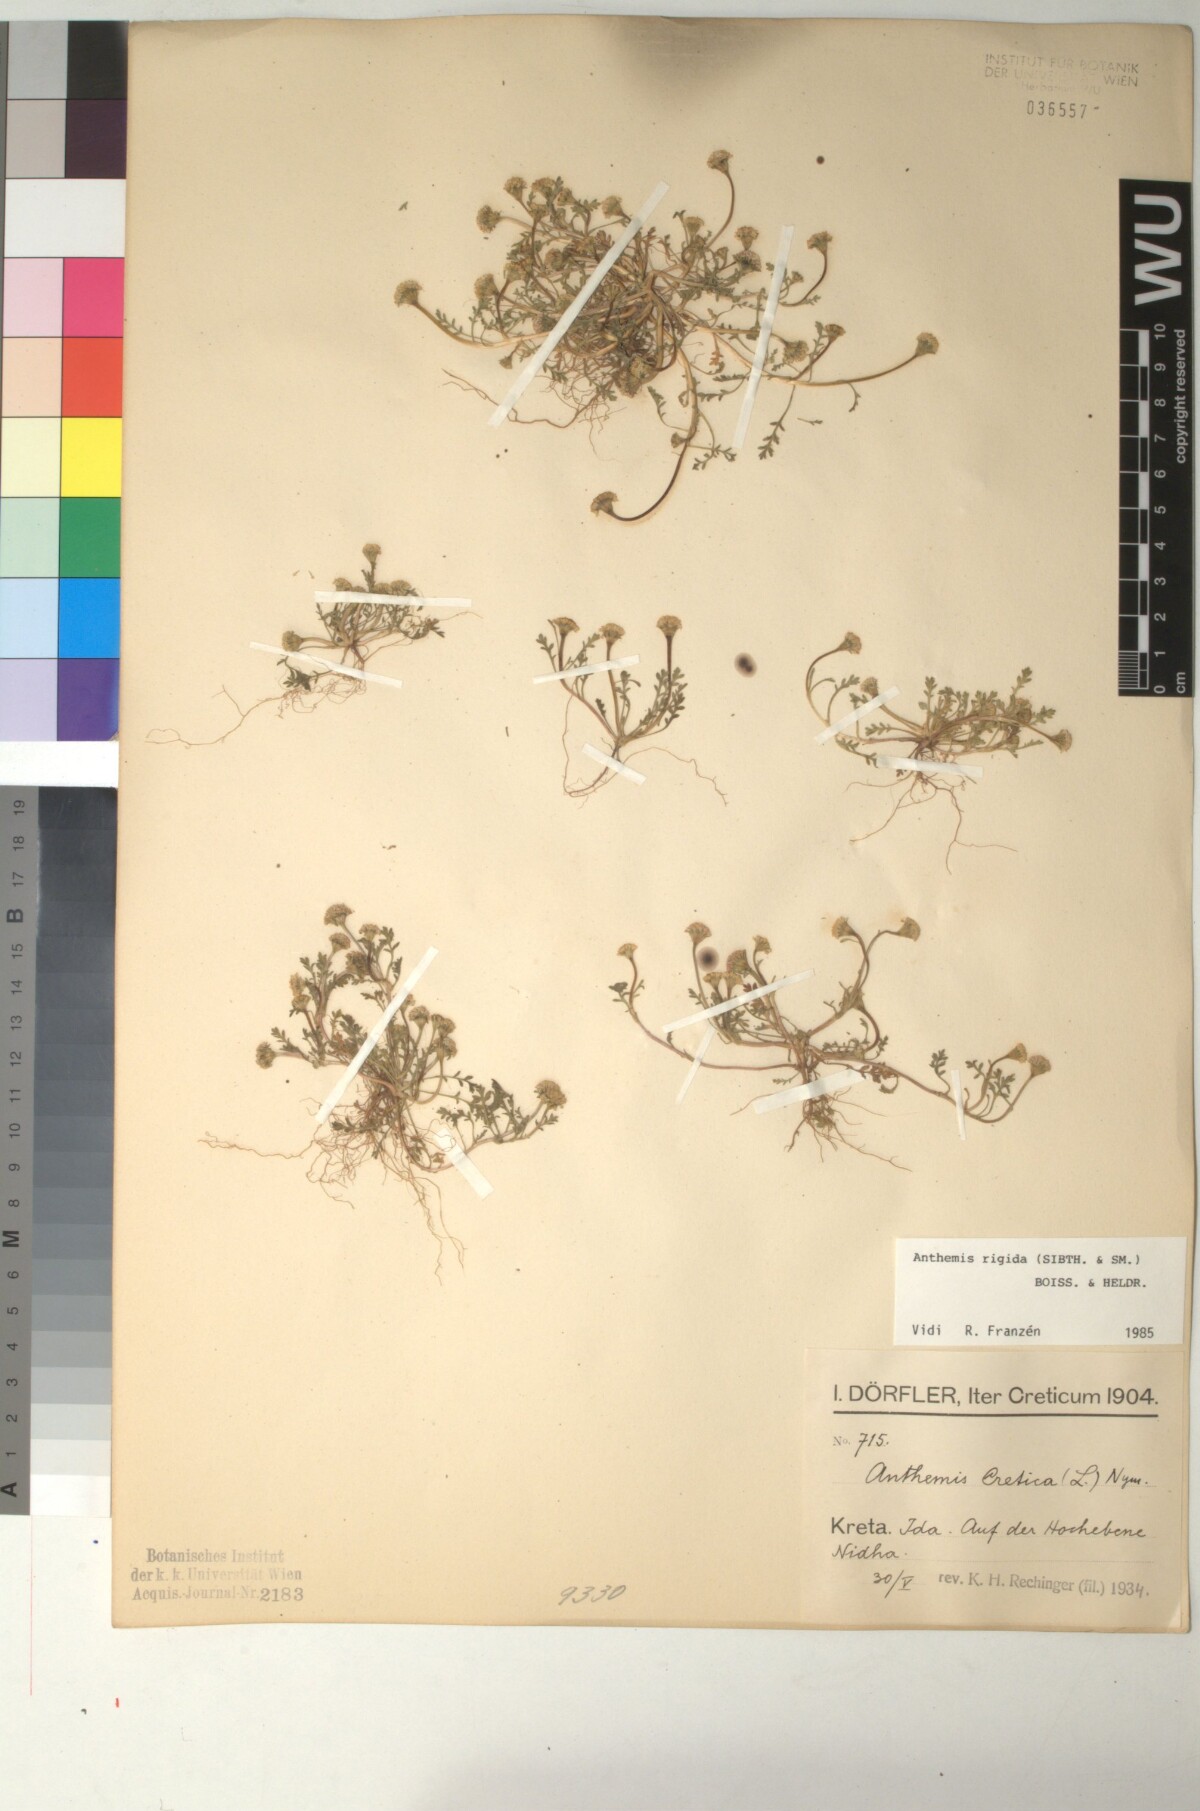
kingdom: Plantae
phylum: Tracheophyta
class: Magnoliopsida
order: Asterales
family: Asteraceae
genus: Anthemis
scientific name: Anthemis rigida
